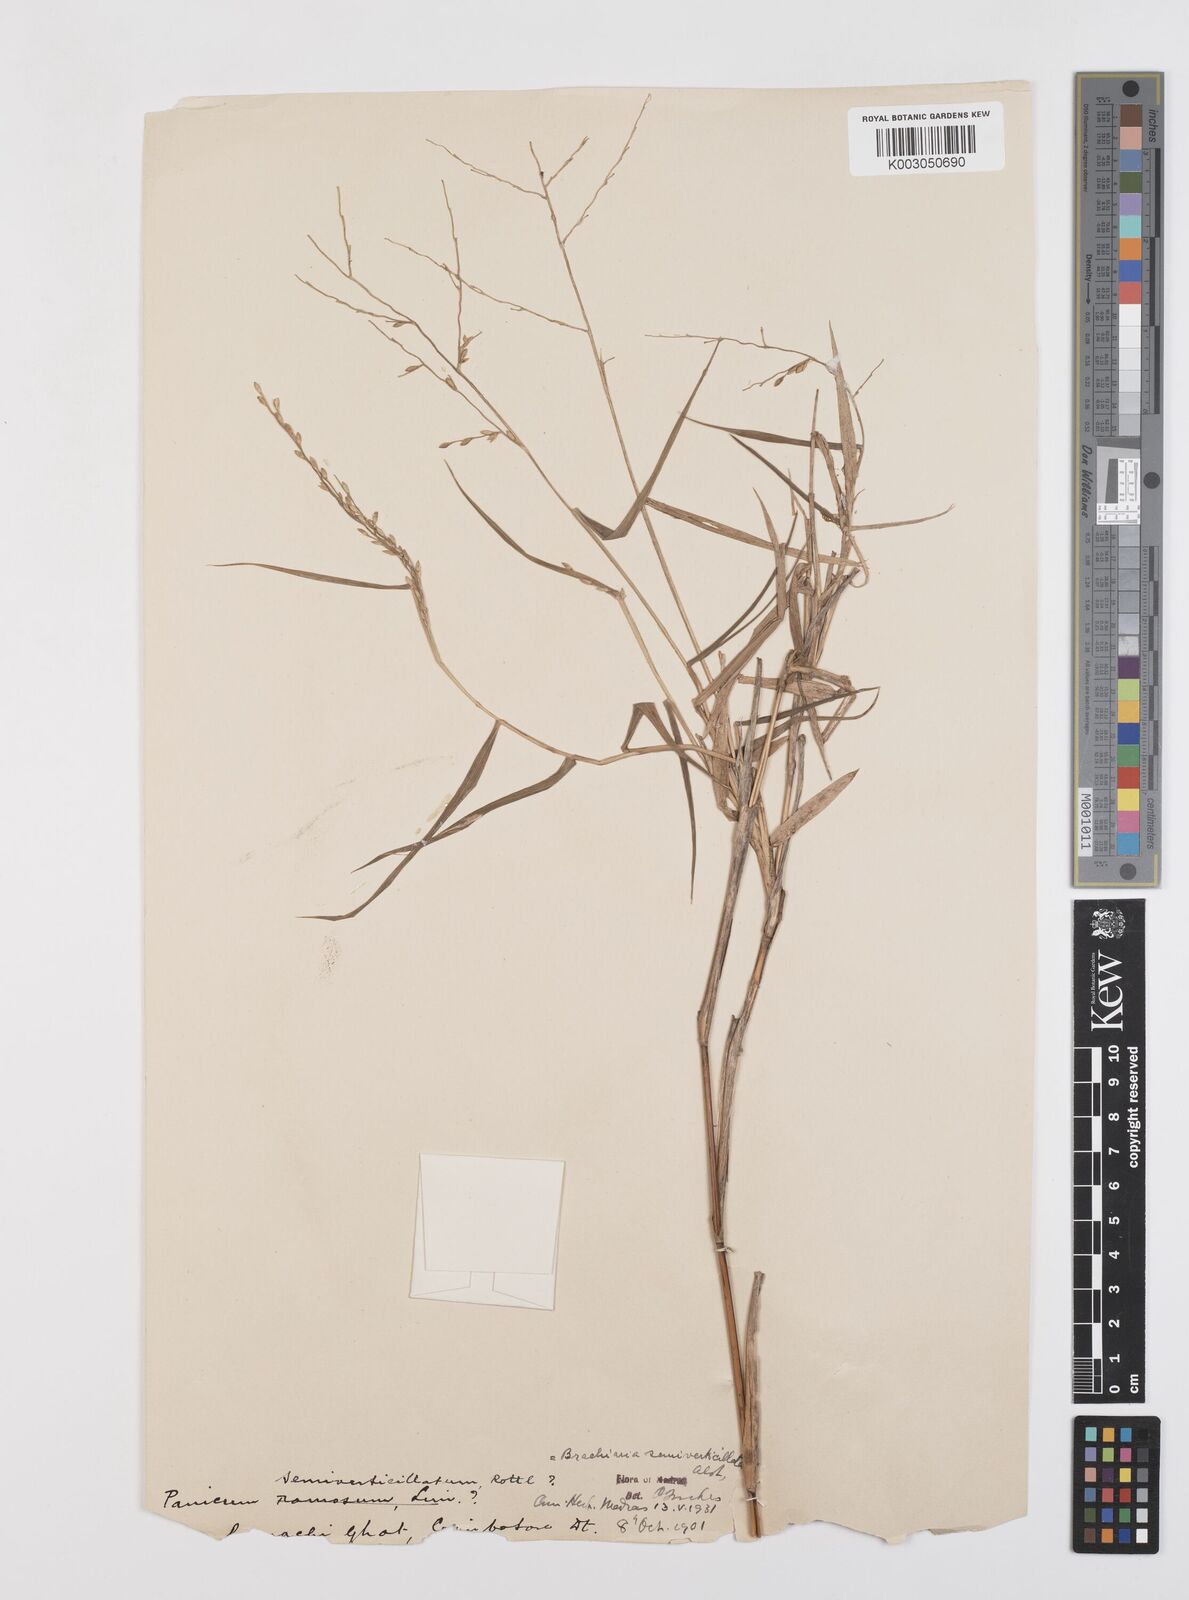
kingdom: Plantae
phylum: Tracheophyta
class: Liliopsida
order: Poales
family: Poaceae
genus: Urochloa
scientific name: Urochloa Brachiaria semiverticillata
